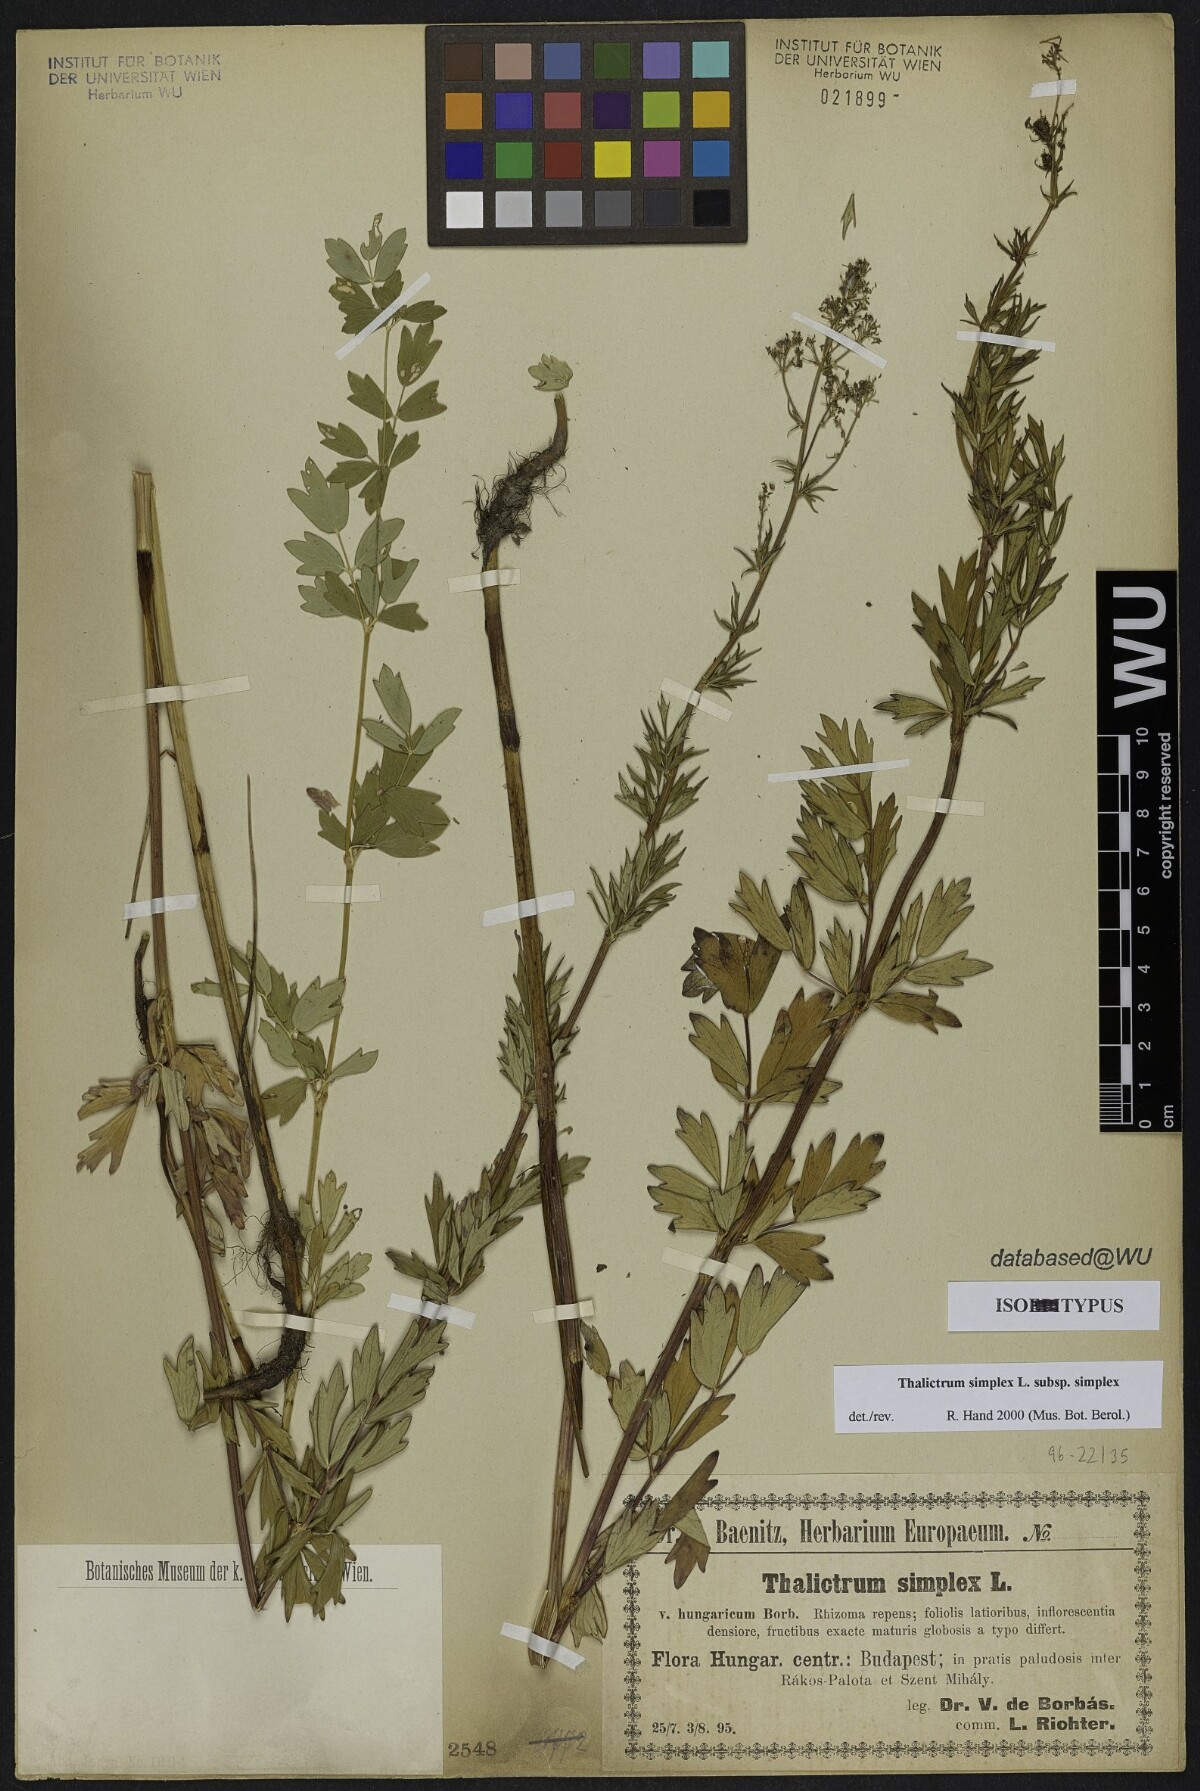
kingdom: Plantae
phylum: Tracheophyta
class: Magnoliopsida
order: Ranunculales
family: Ranunculaceae
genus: Thalictrum
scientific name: Thalictrum simplex
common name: Small meadow-rue
